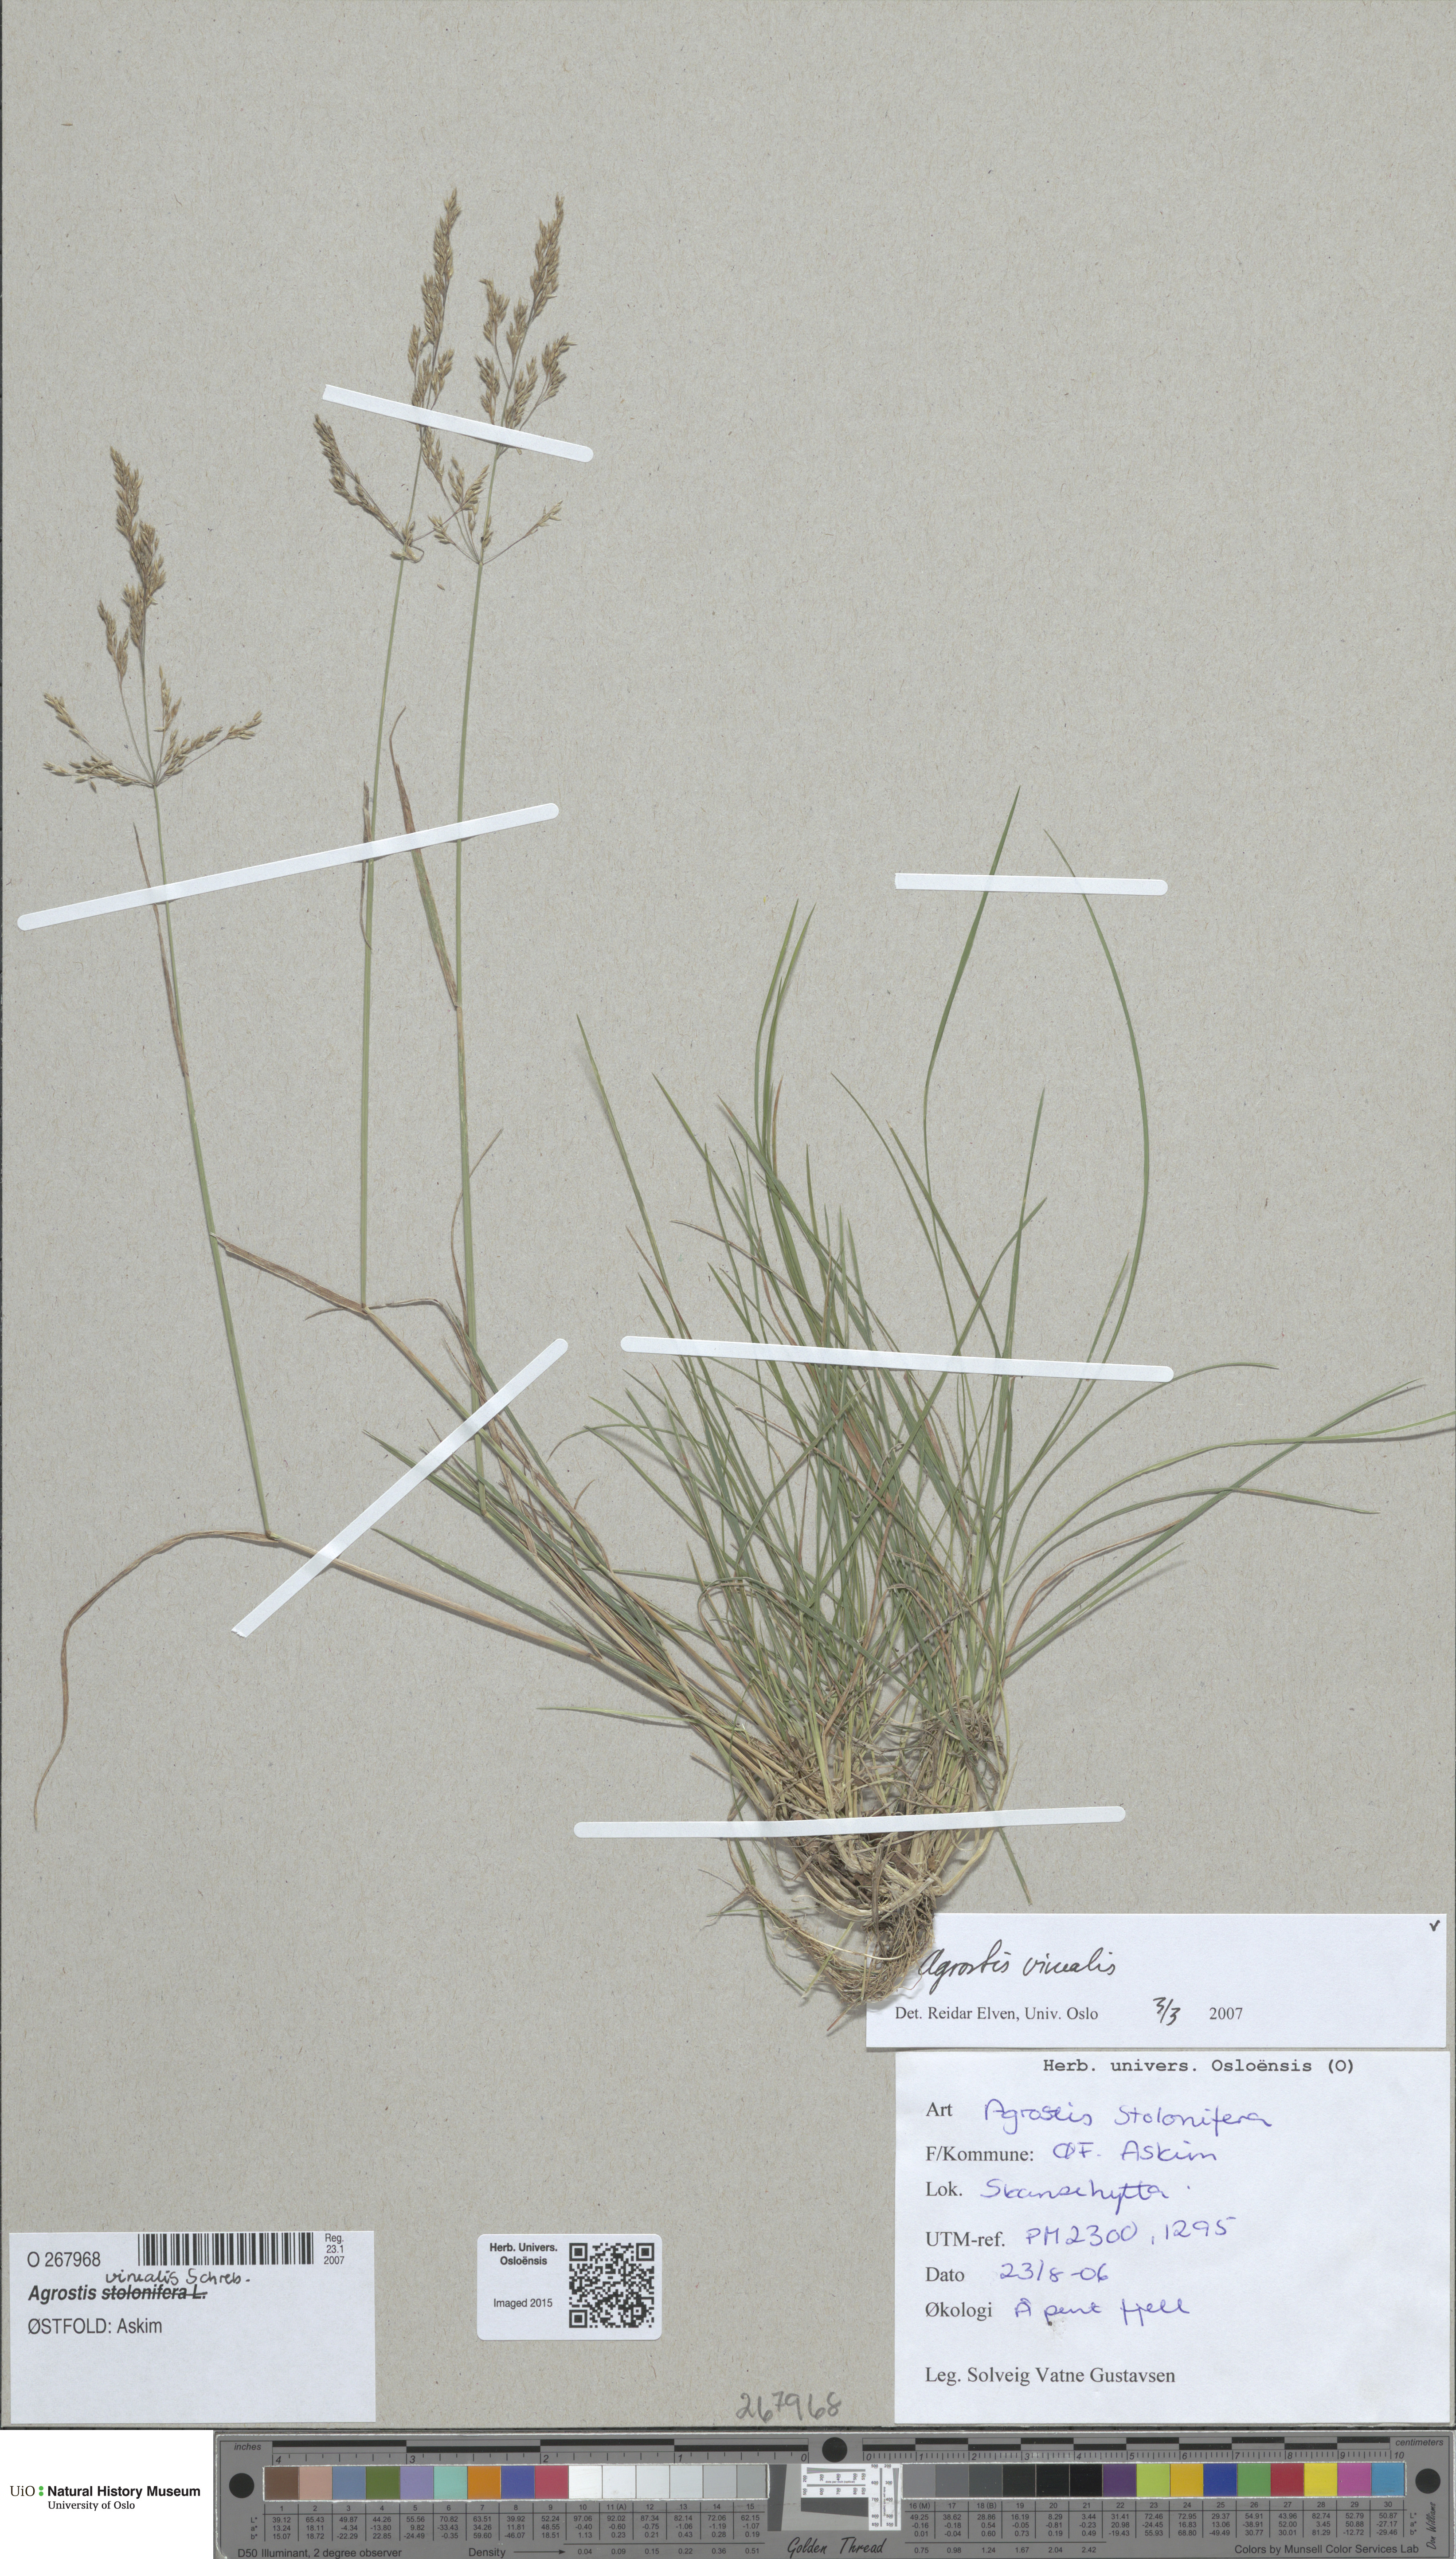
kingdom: Plantae
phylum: Tracheophyta
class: Liliopsida
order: Poales
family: Poaceae
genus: Agrostis
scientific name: Agrostis vinealis
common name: Brown bent
